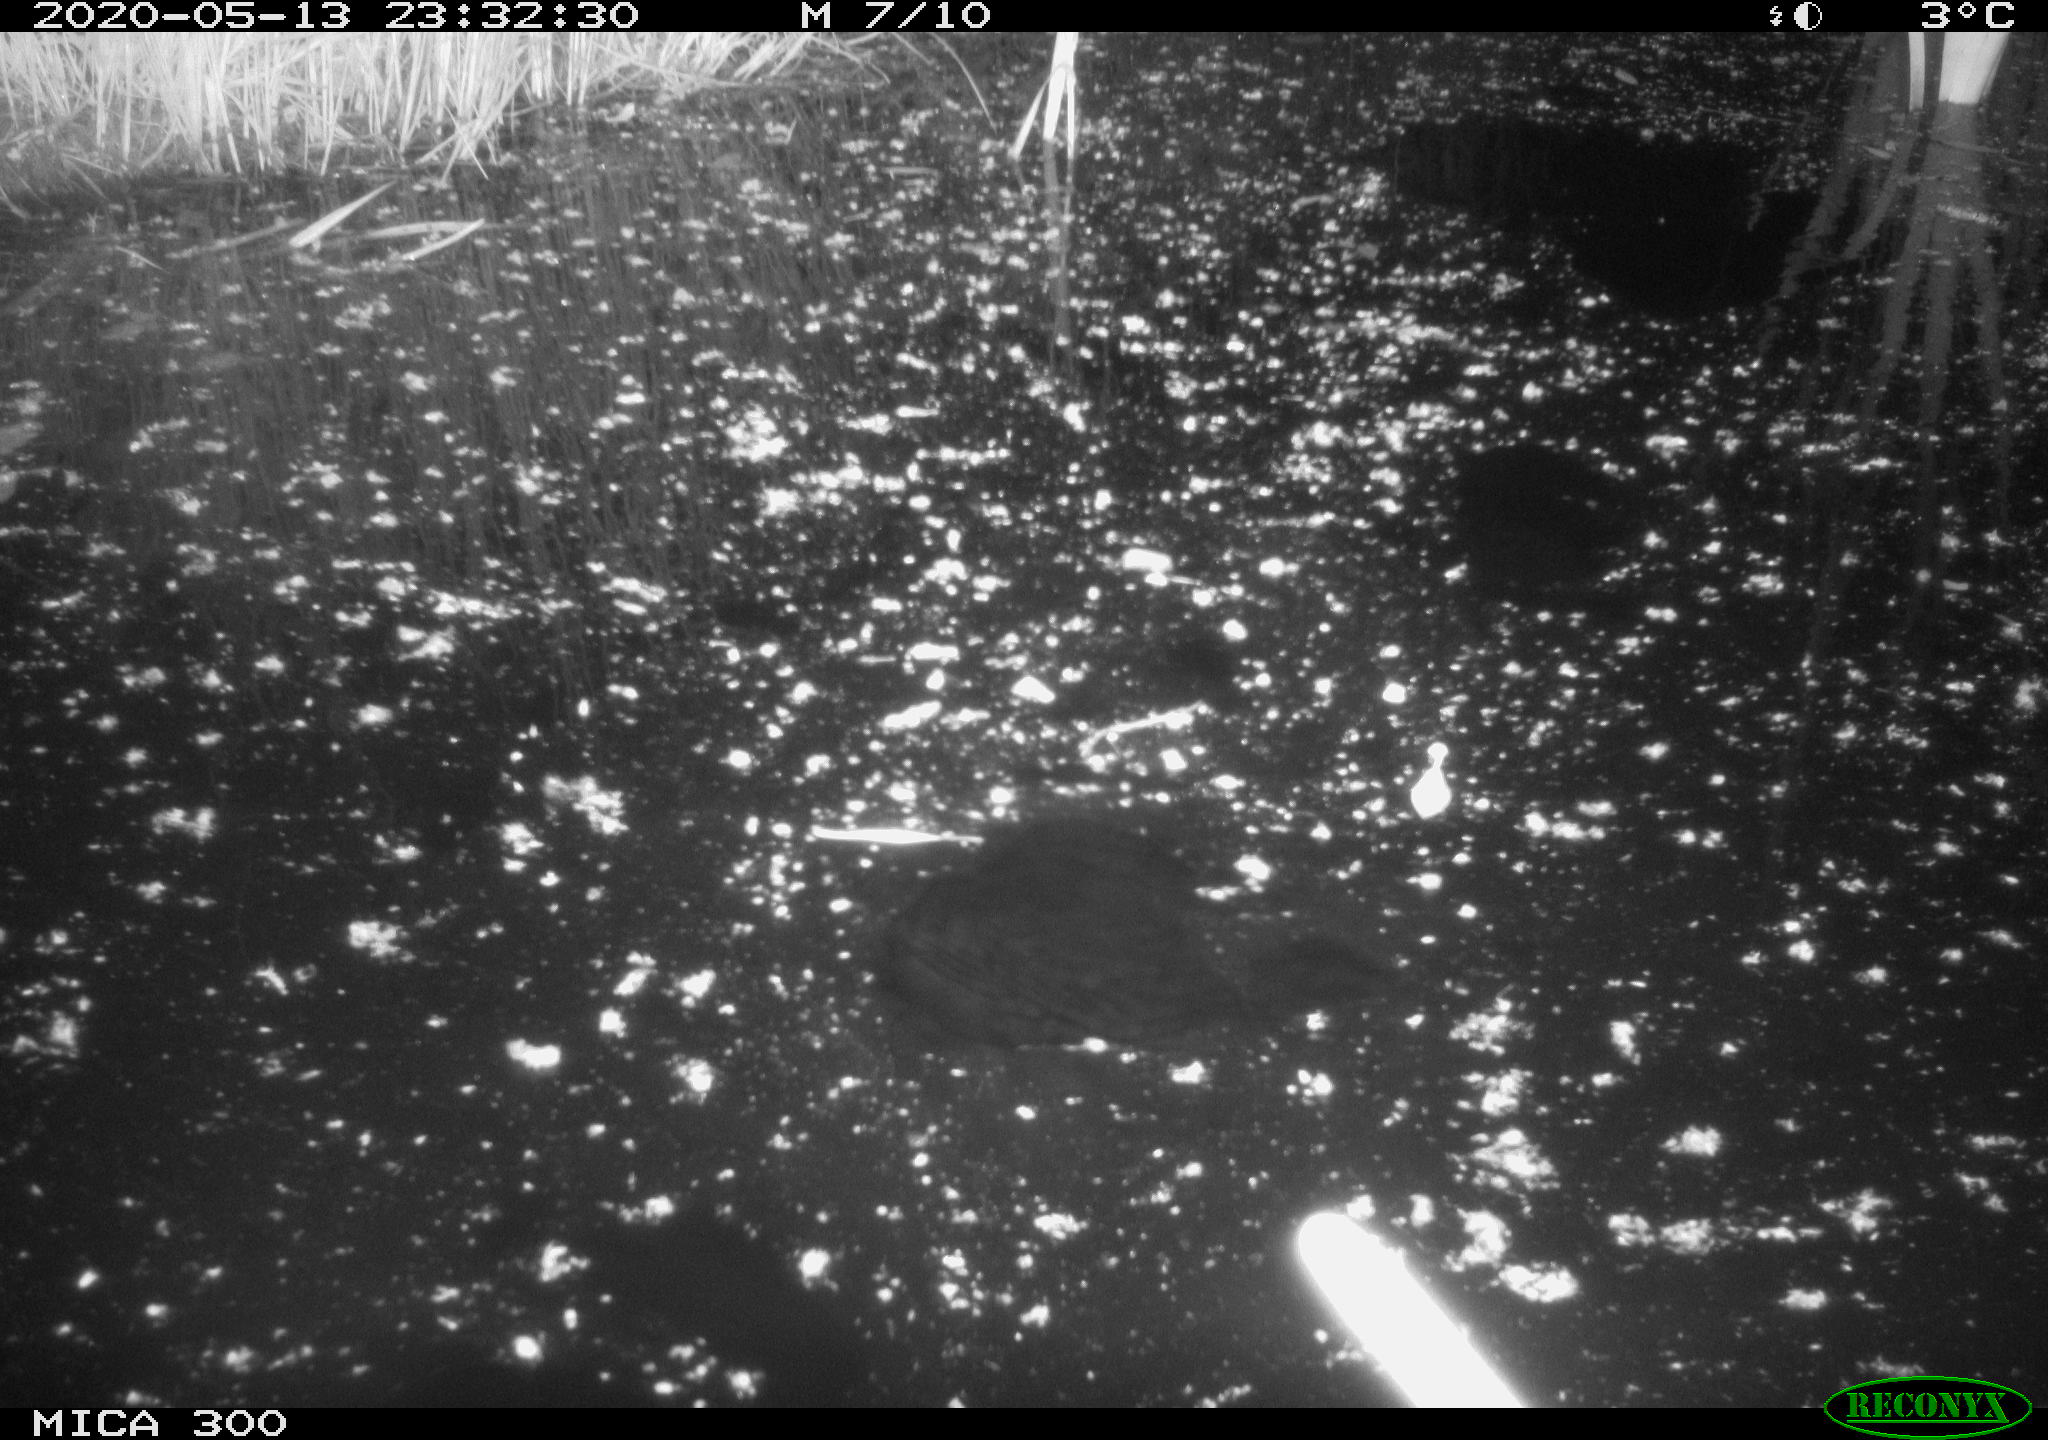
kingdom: Animalia
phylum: Chordata
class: Mammalia
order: Rodentia
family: Castoridae
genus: Castor
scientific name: Castor fiber
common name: Eurasian beaver
